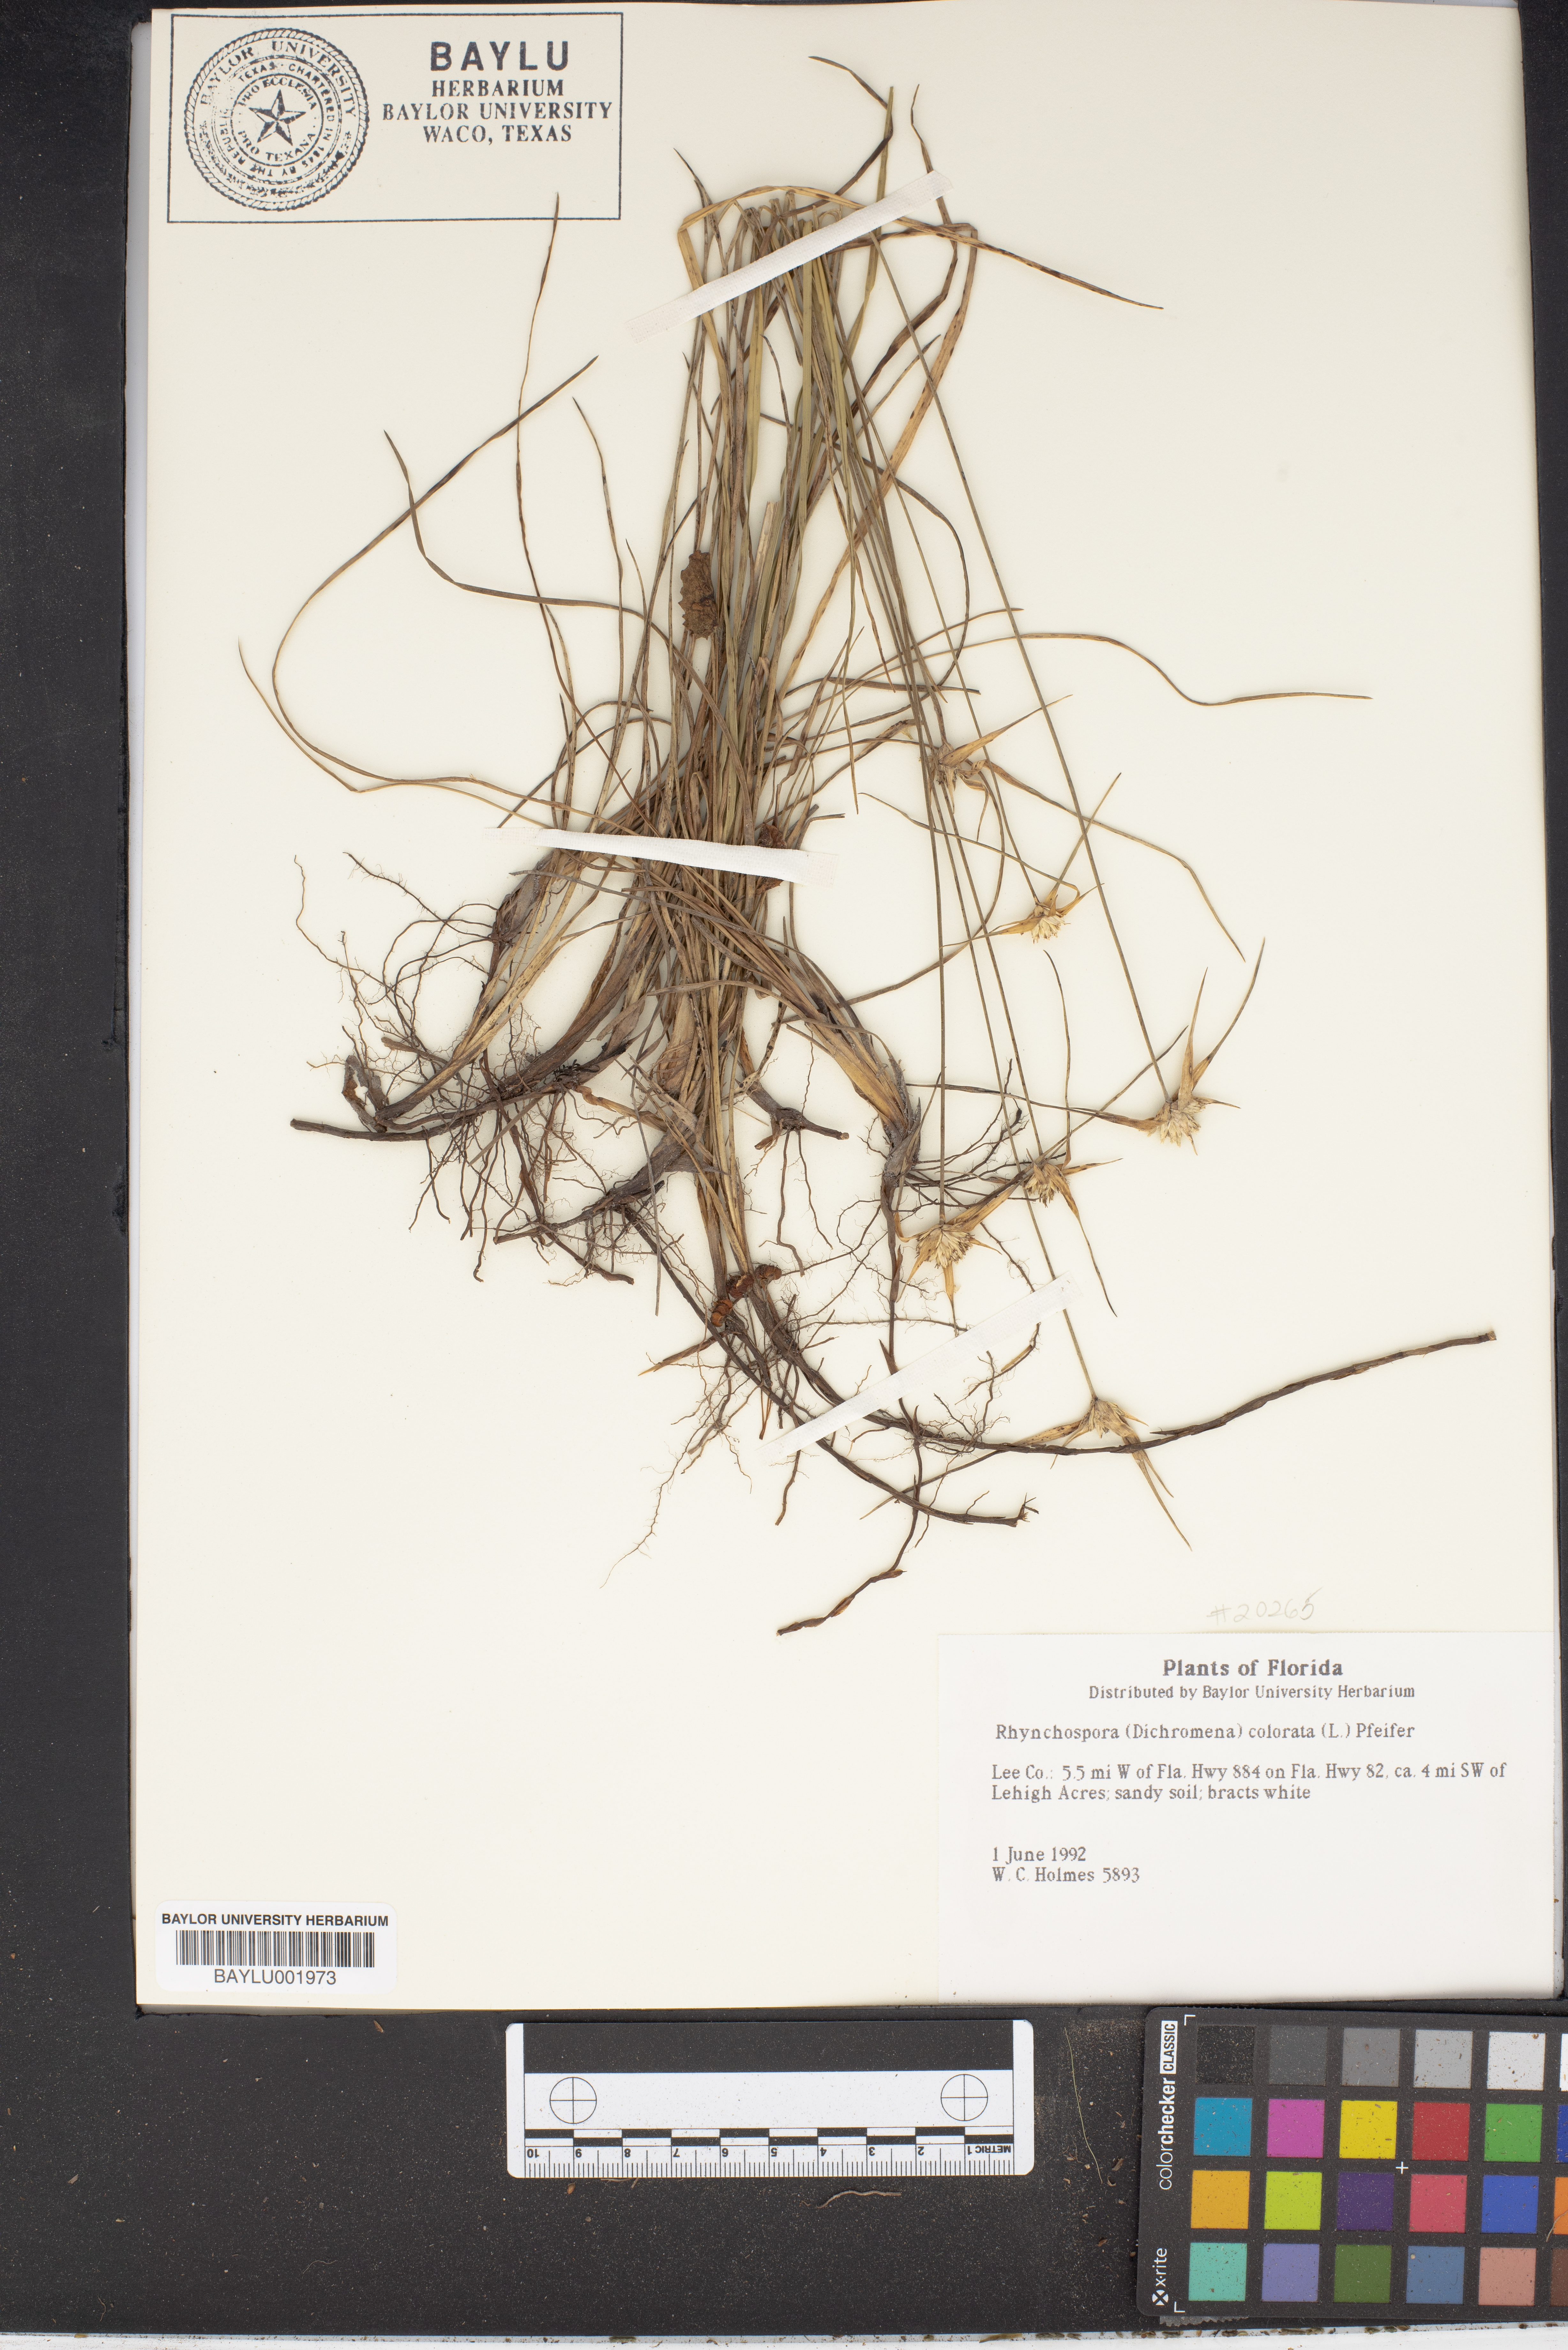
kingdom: Plantae
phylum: Tracheophyta
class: Liliopsida
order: Poales
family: Cyperaceae
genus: Rhynchospora
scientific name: Rhynchospora colorata
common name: Star sedge
